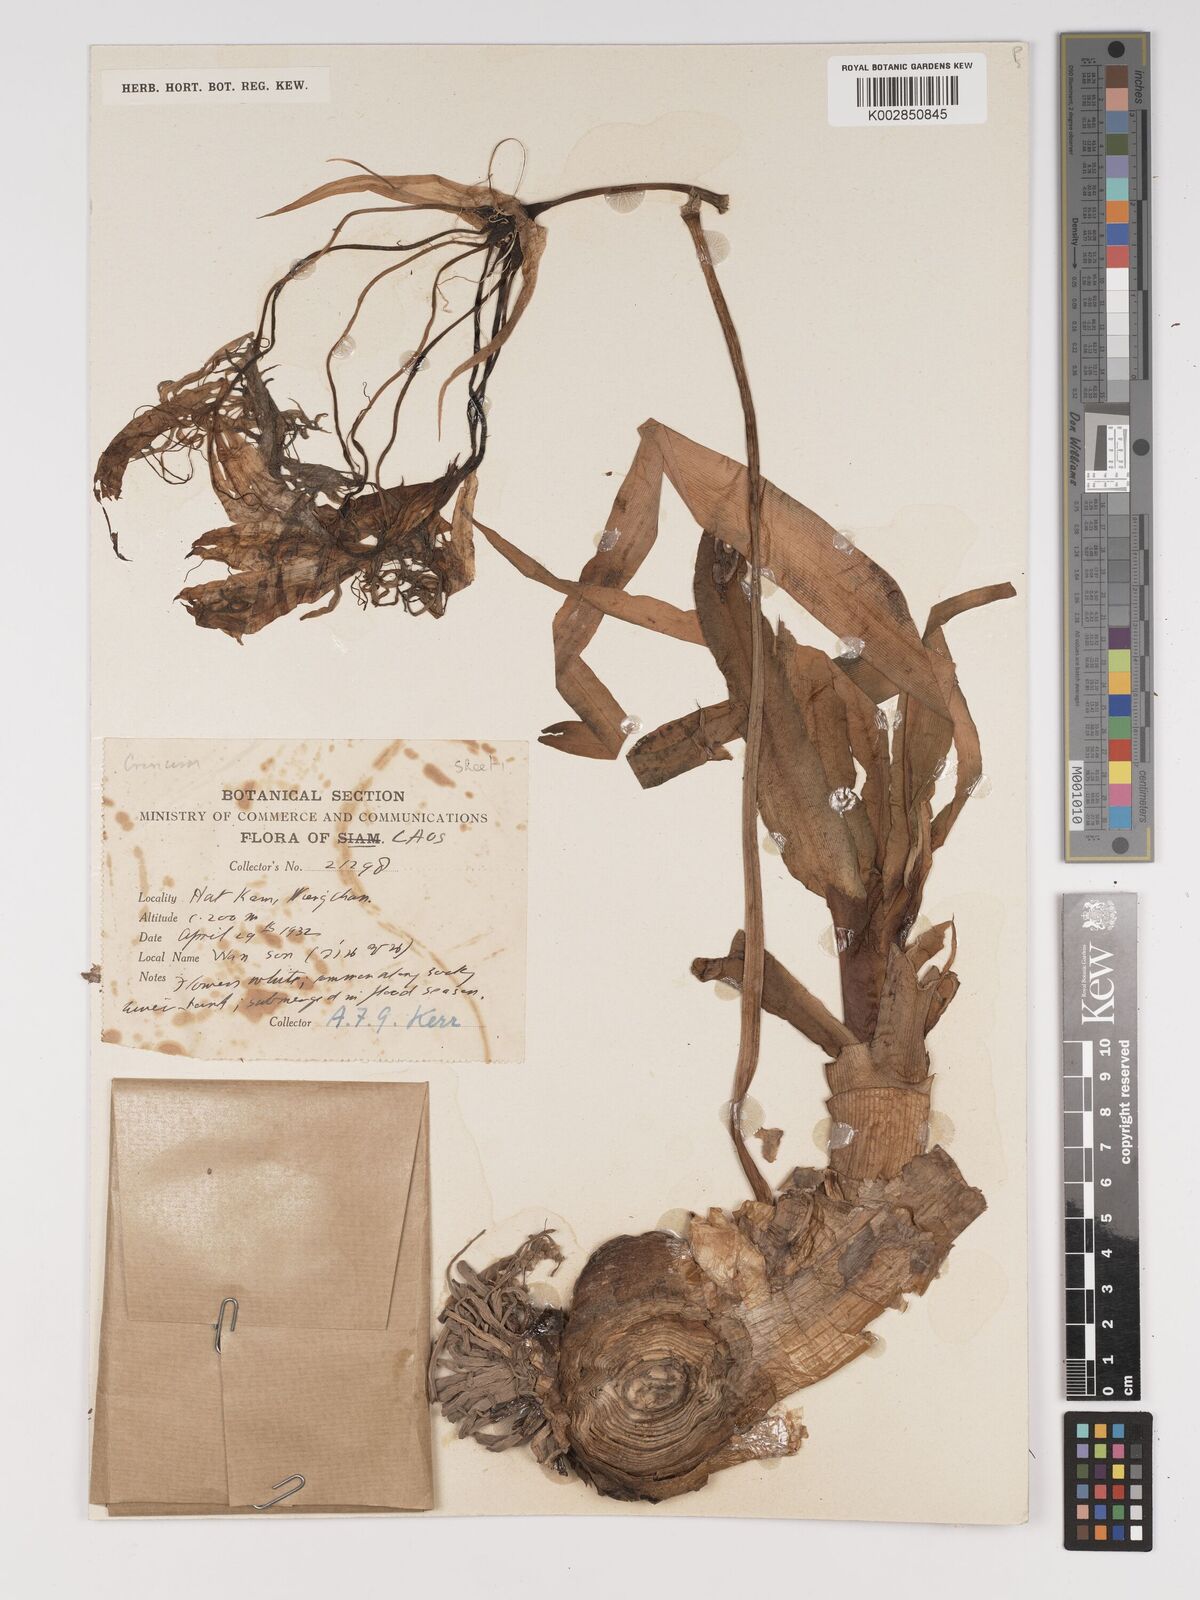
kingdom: Plantae
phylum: Tracheophyta
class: Liliopsida
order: Asparagales
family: Amaryllidaceae
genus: Crinum
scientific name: Crinum
